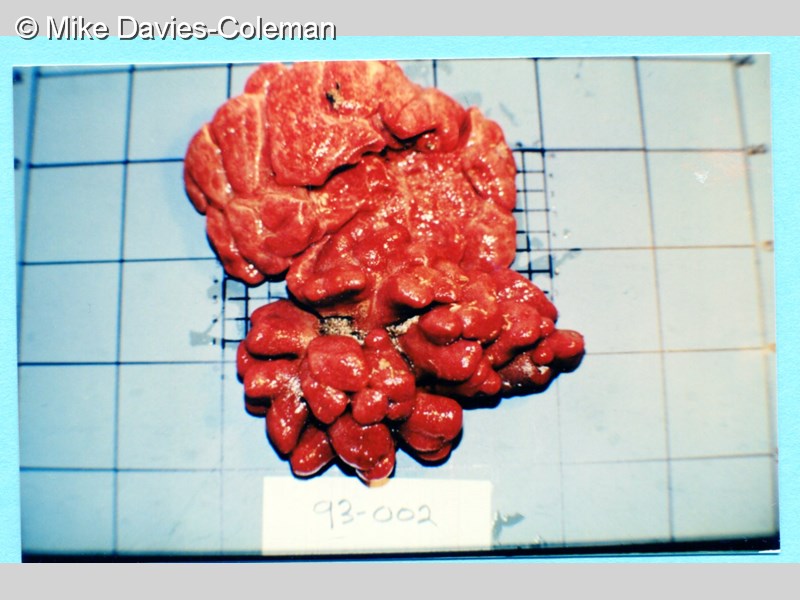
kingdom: Animalia
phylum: Chordata
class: Ascidiacea
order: Aplousobranchia
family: Pseudodistomidae
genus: Pseudodistoma
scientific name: Pseudodistoma
